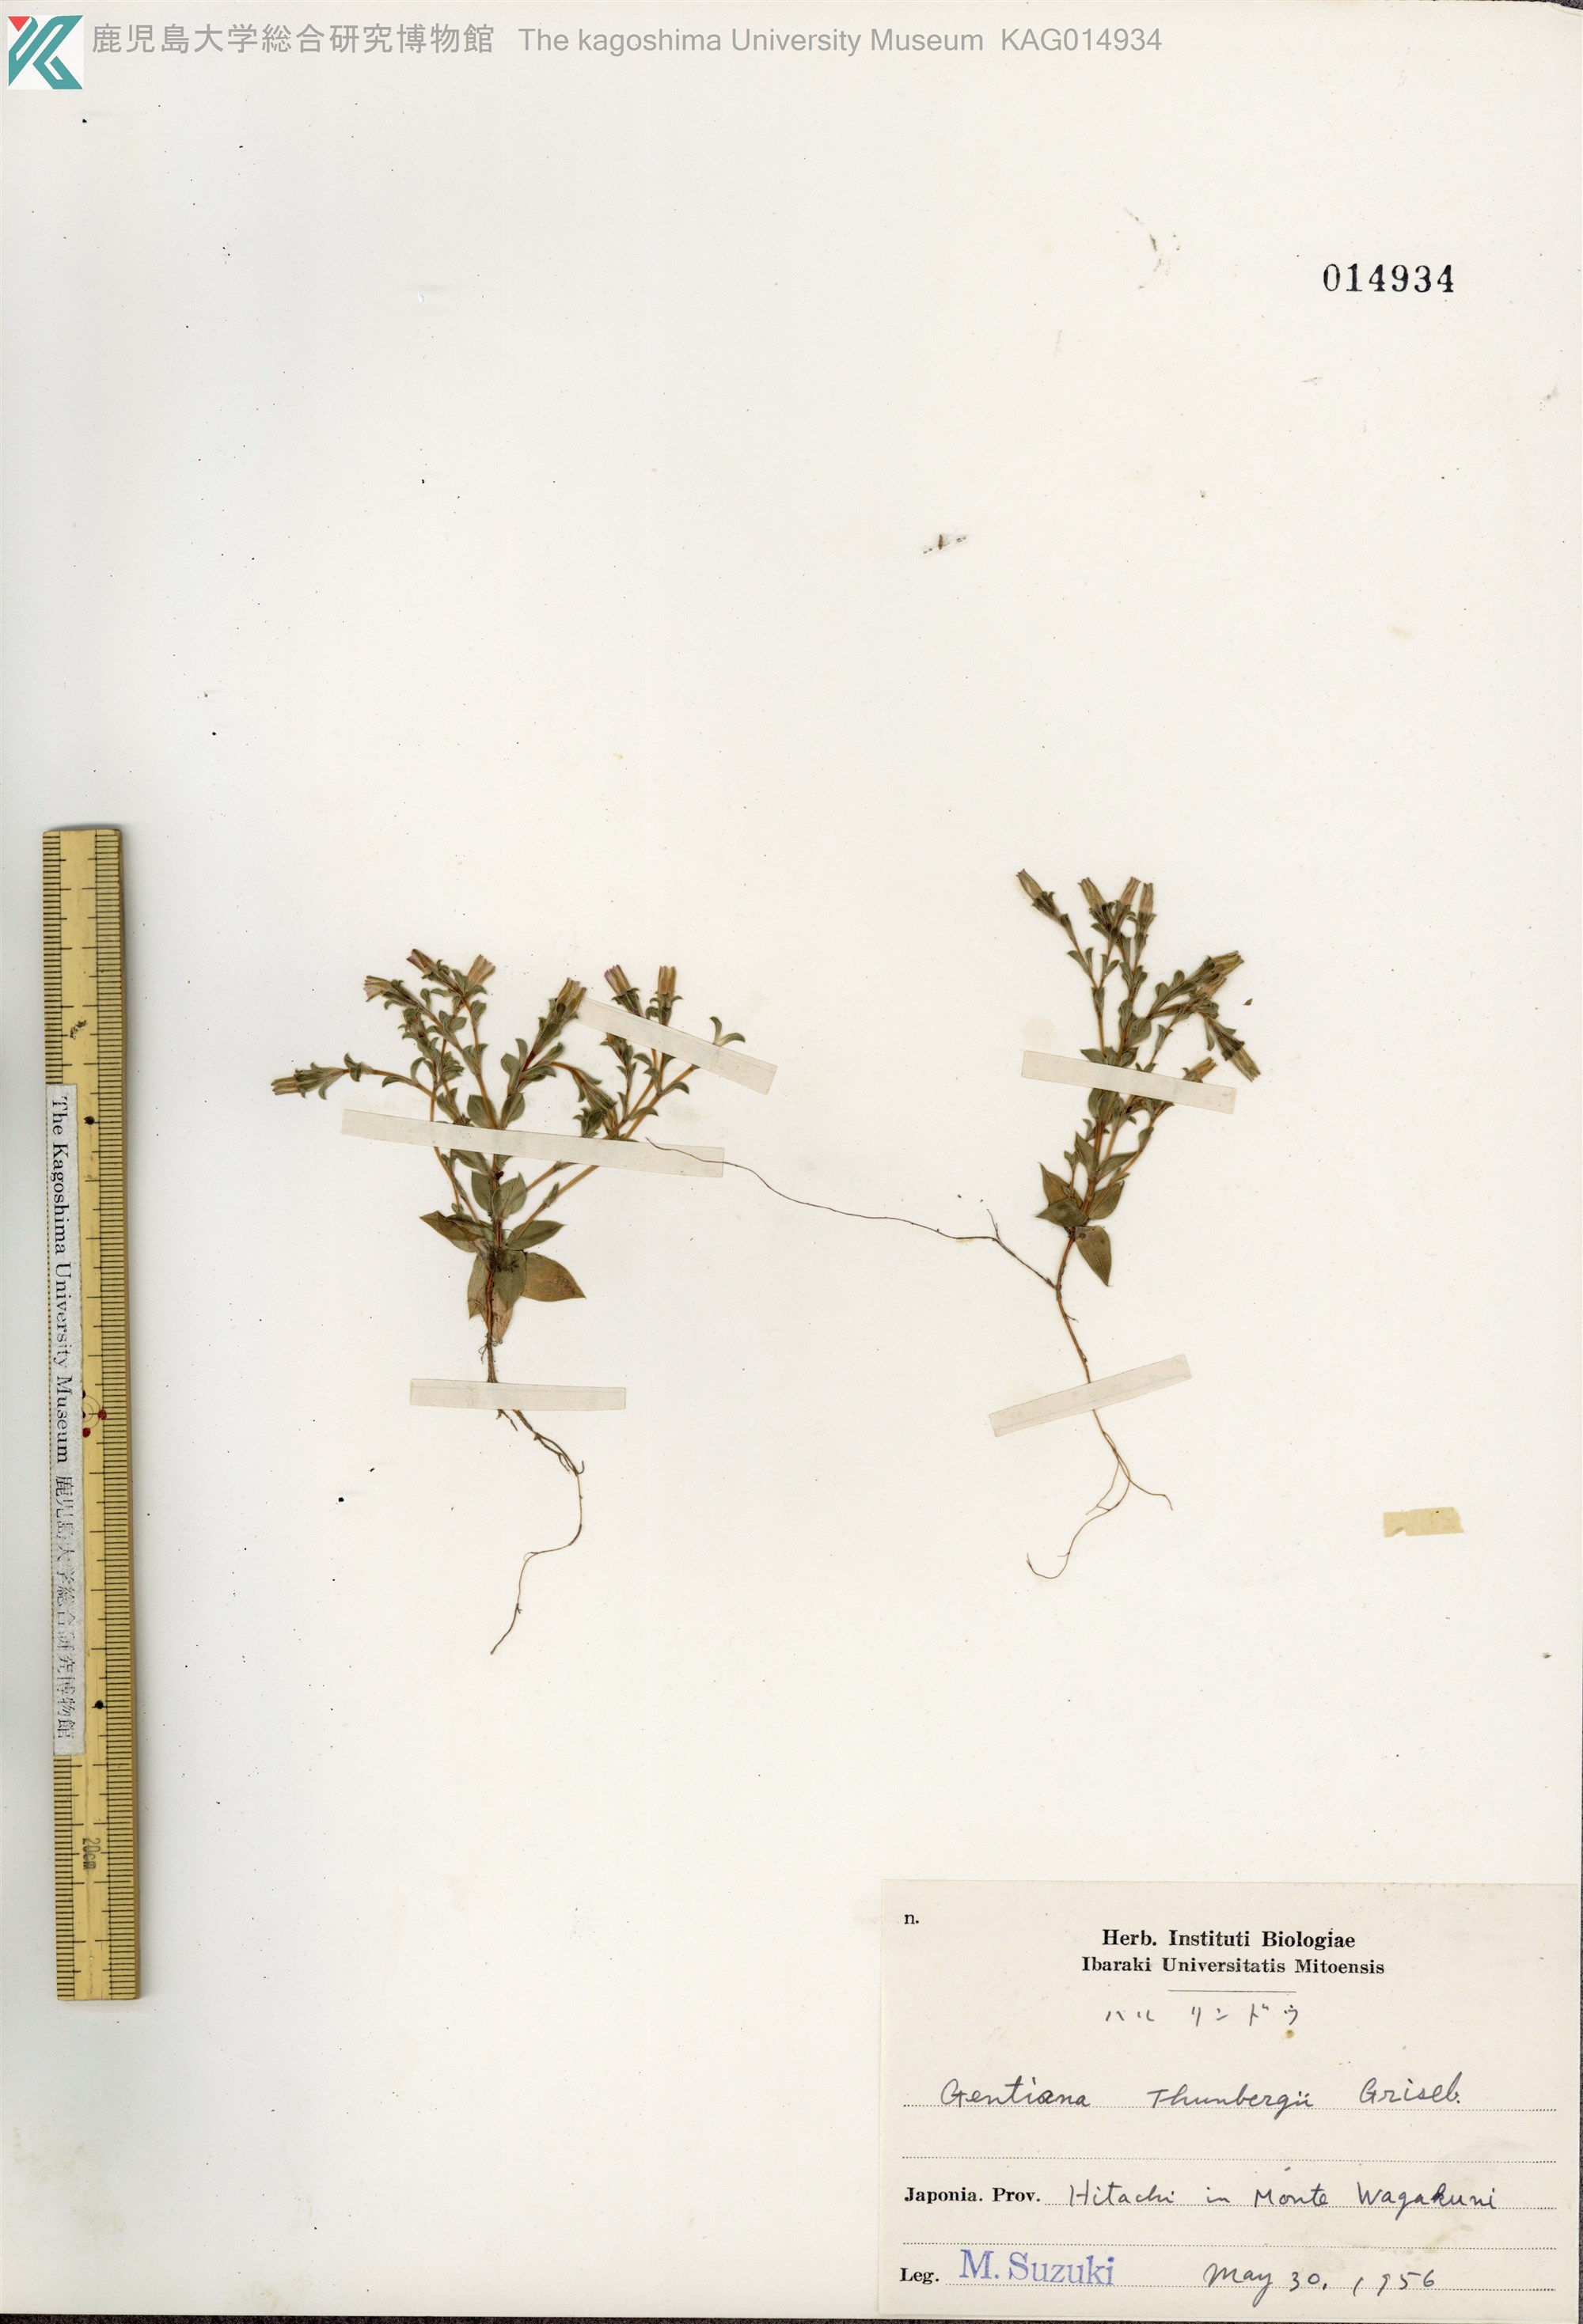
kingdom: Plantae
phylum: Tracheophyta
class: Magnoliopsida
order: Gentianales
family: Gentianaceae
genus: Gentiana
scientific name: Gentiana squarrosa
